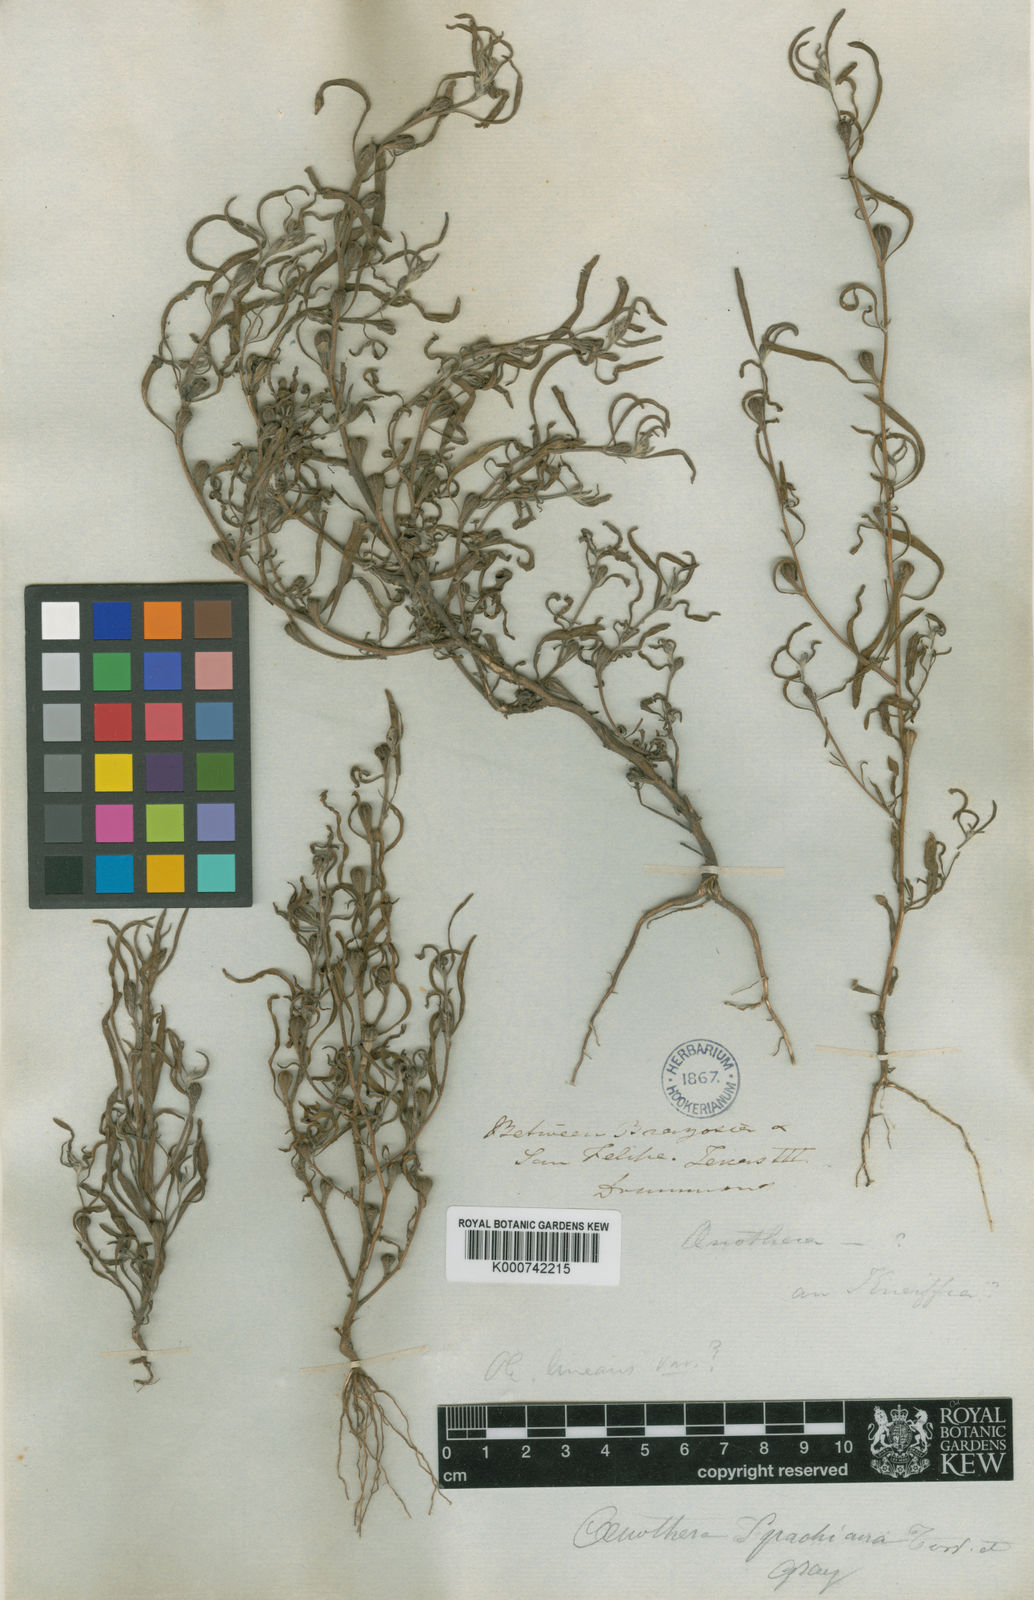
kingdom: Plantae
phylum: Tracheophyta
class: Magnoliopsida
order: Myrtales
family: Onagraceae
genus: Oenothera
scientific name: Oenothera spachiana
